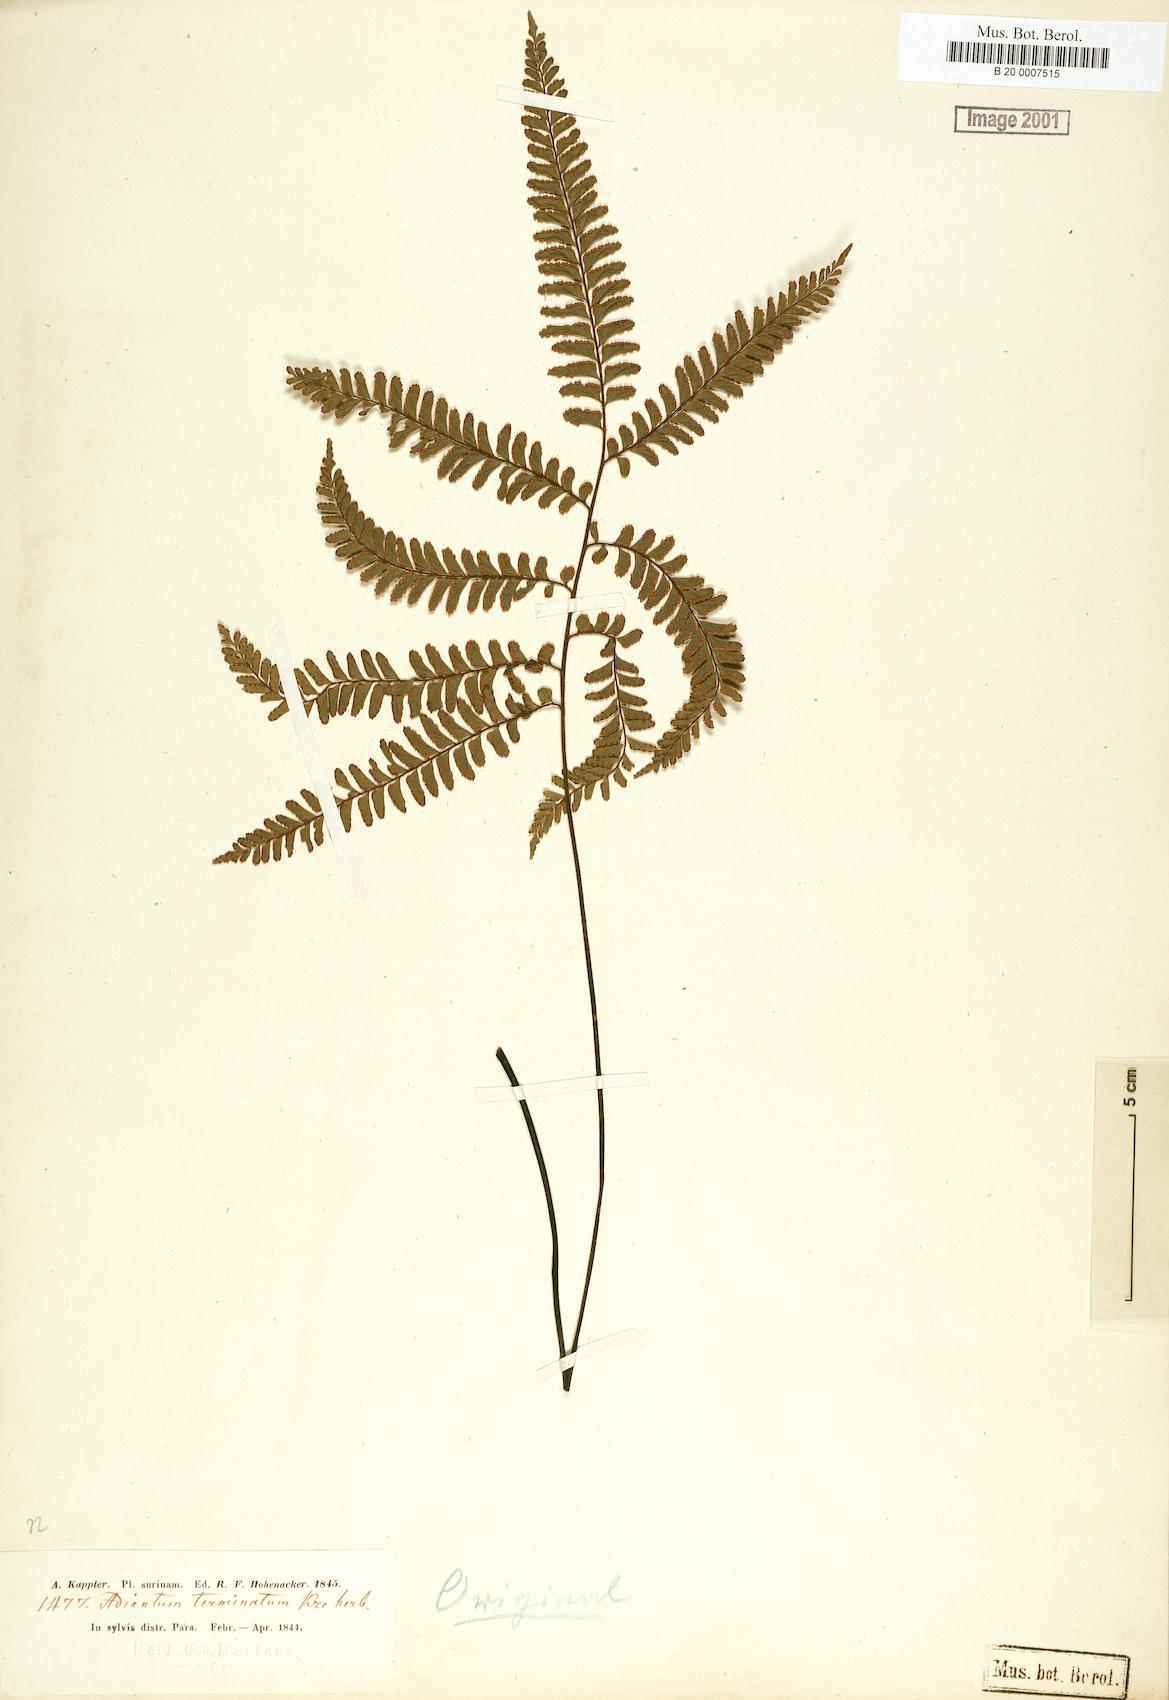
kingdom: Plantae
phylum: Tracheophyta
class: Polypodiopsida
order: Polypodiales
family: Pteridaceae
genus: Adiantum
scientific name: Adiantum terminatum
